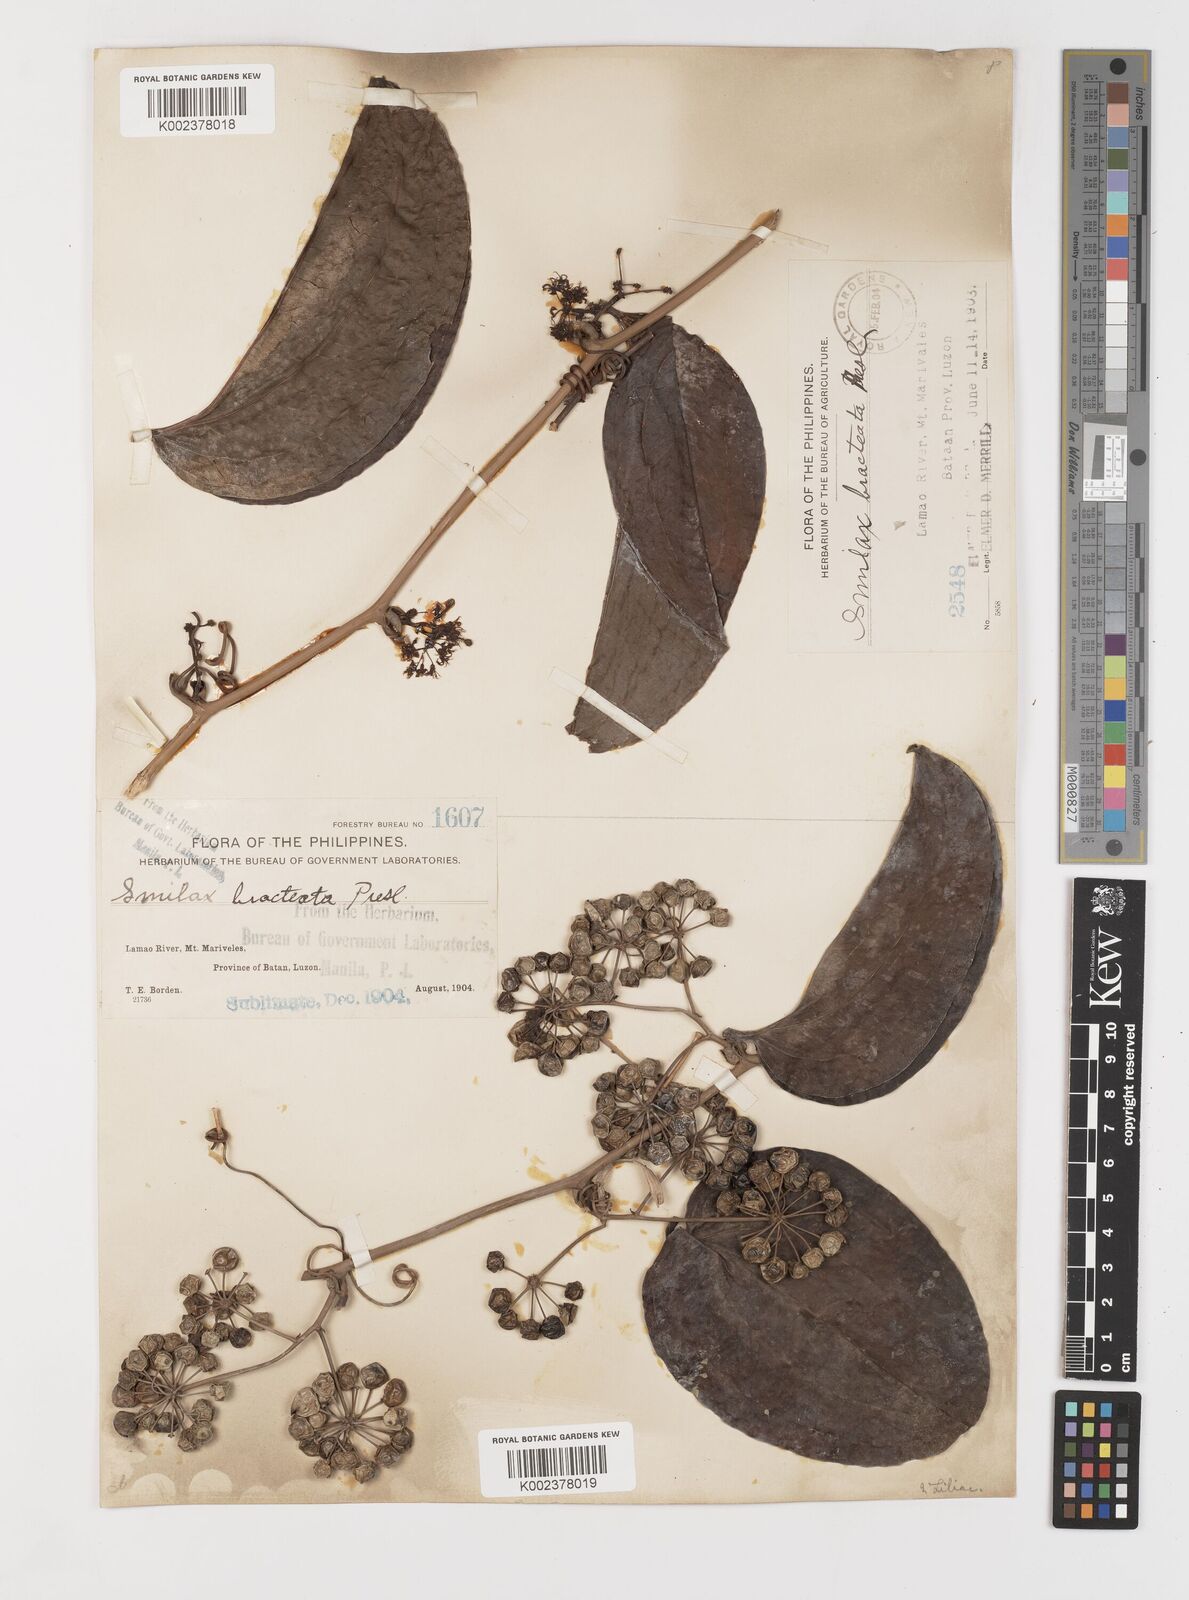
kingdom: Plantae
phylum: Tracheophyta
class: Liliopsida
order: Liliales
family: Smilacaceae
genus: Smilax
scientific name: Smilax bracteata
